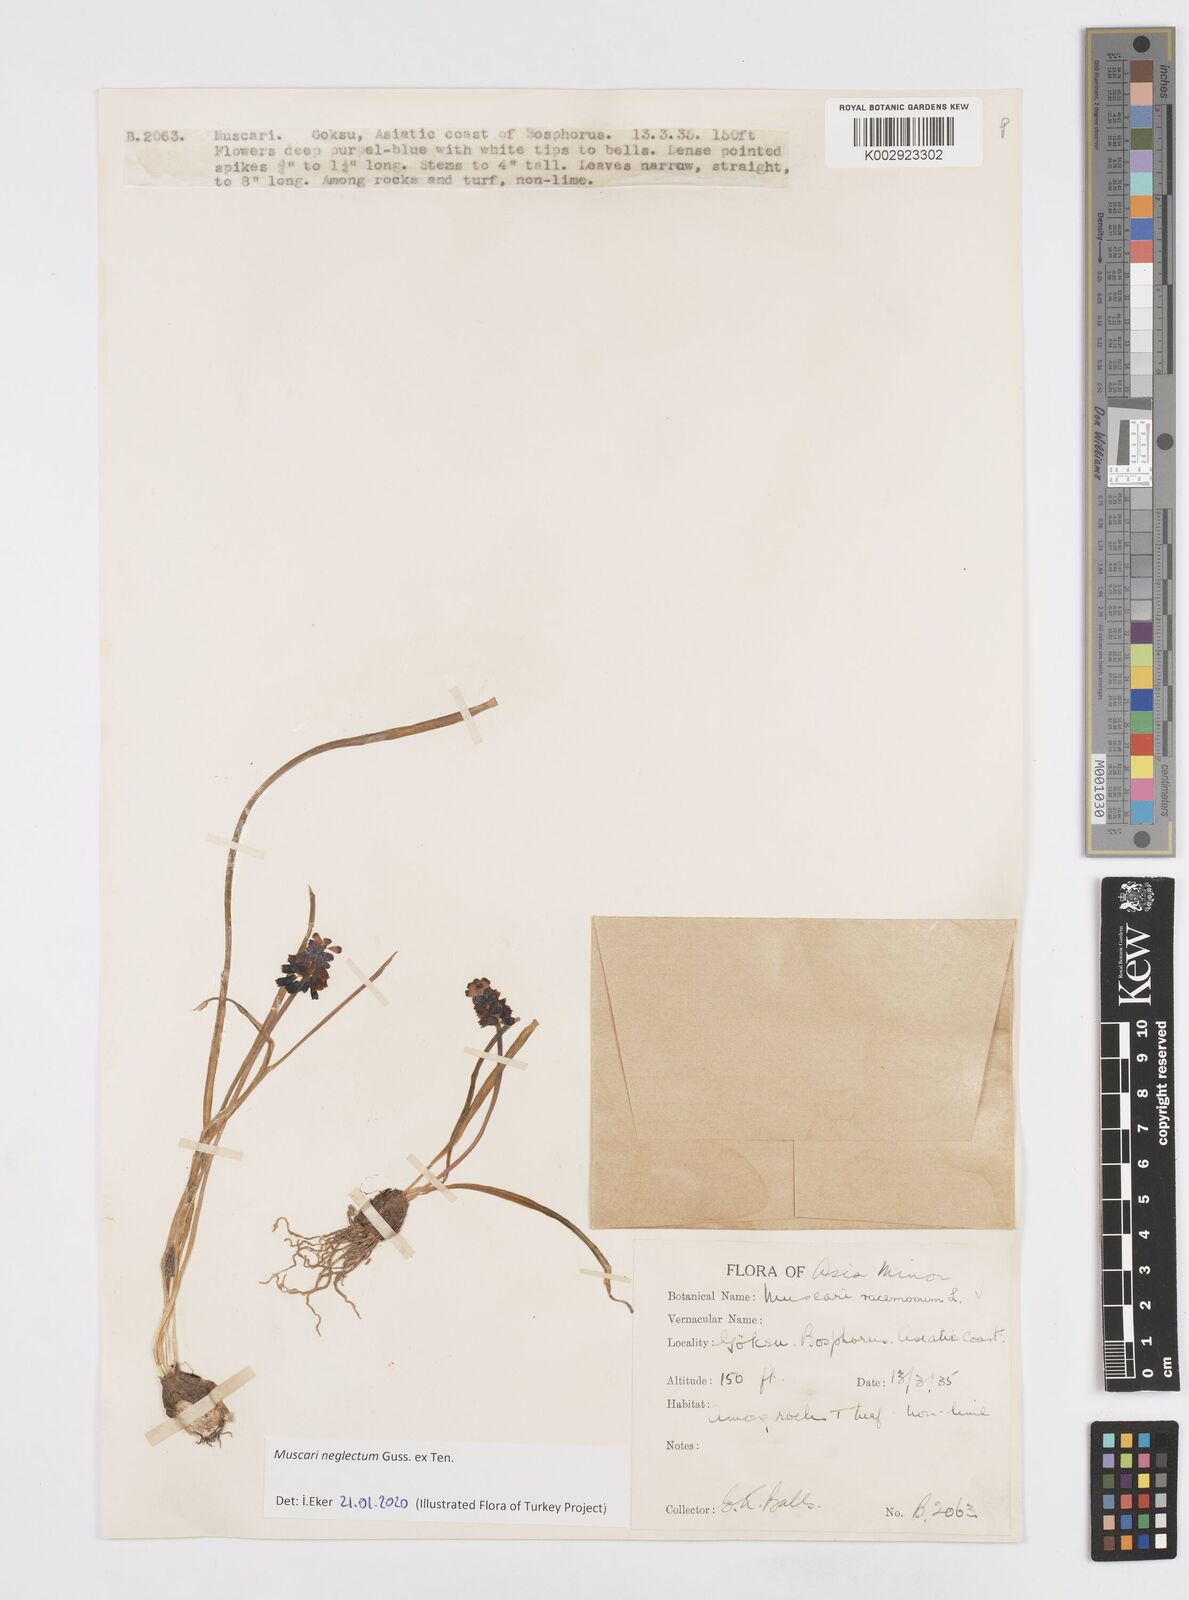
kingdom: Plantae
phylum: Tracheophyta
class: Liliopsida
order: Asparagales
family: Asparagaceae
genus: Muscari
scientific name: Muscari neglectum
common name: Grape-hyacinth
